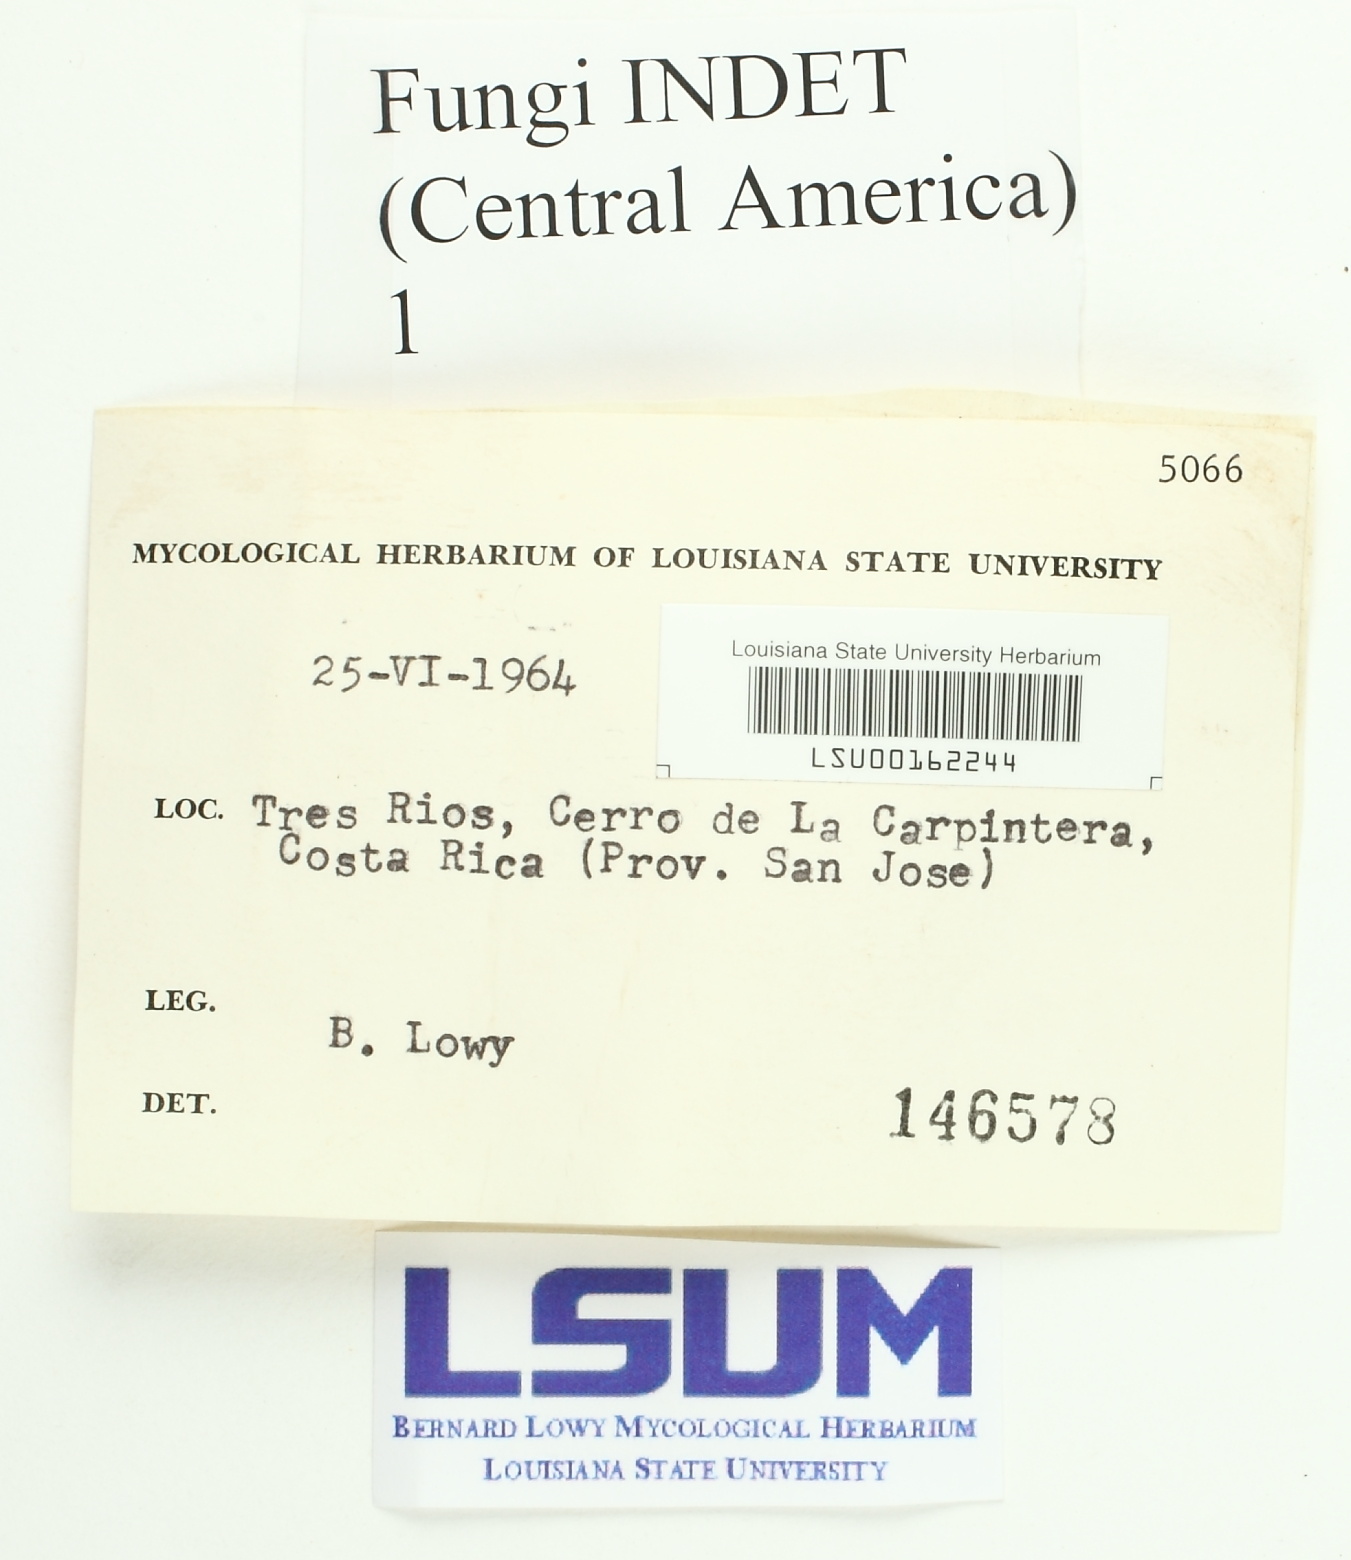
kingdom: Fungi
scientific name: Fungi
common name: Fungi
